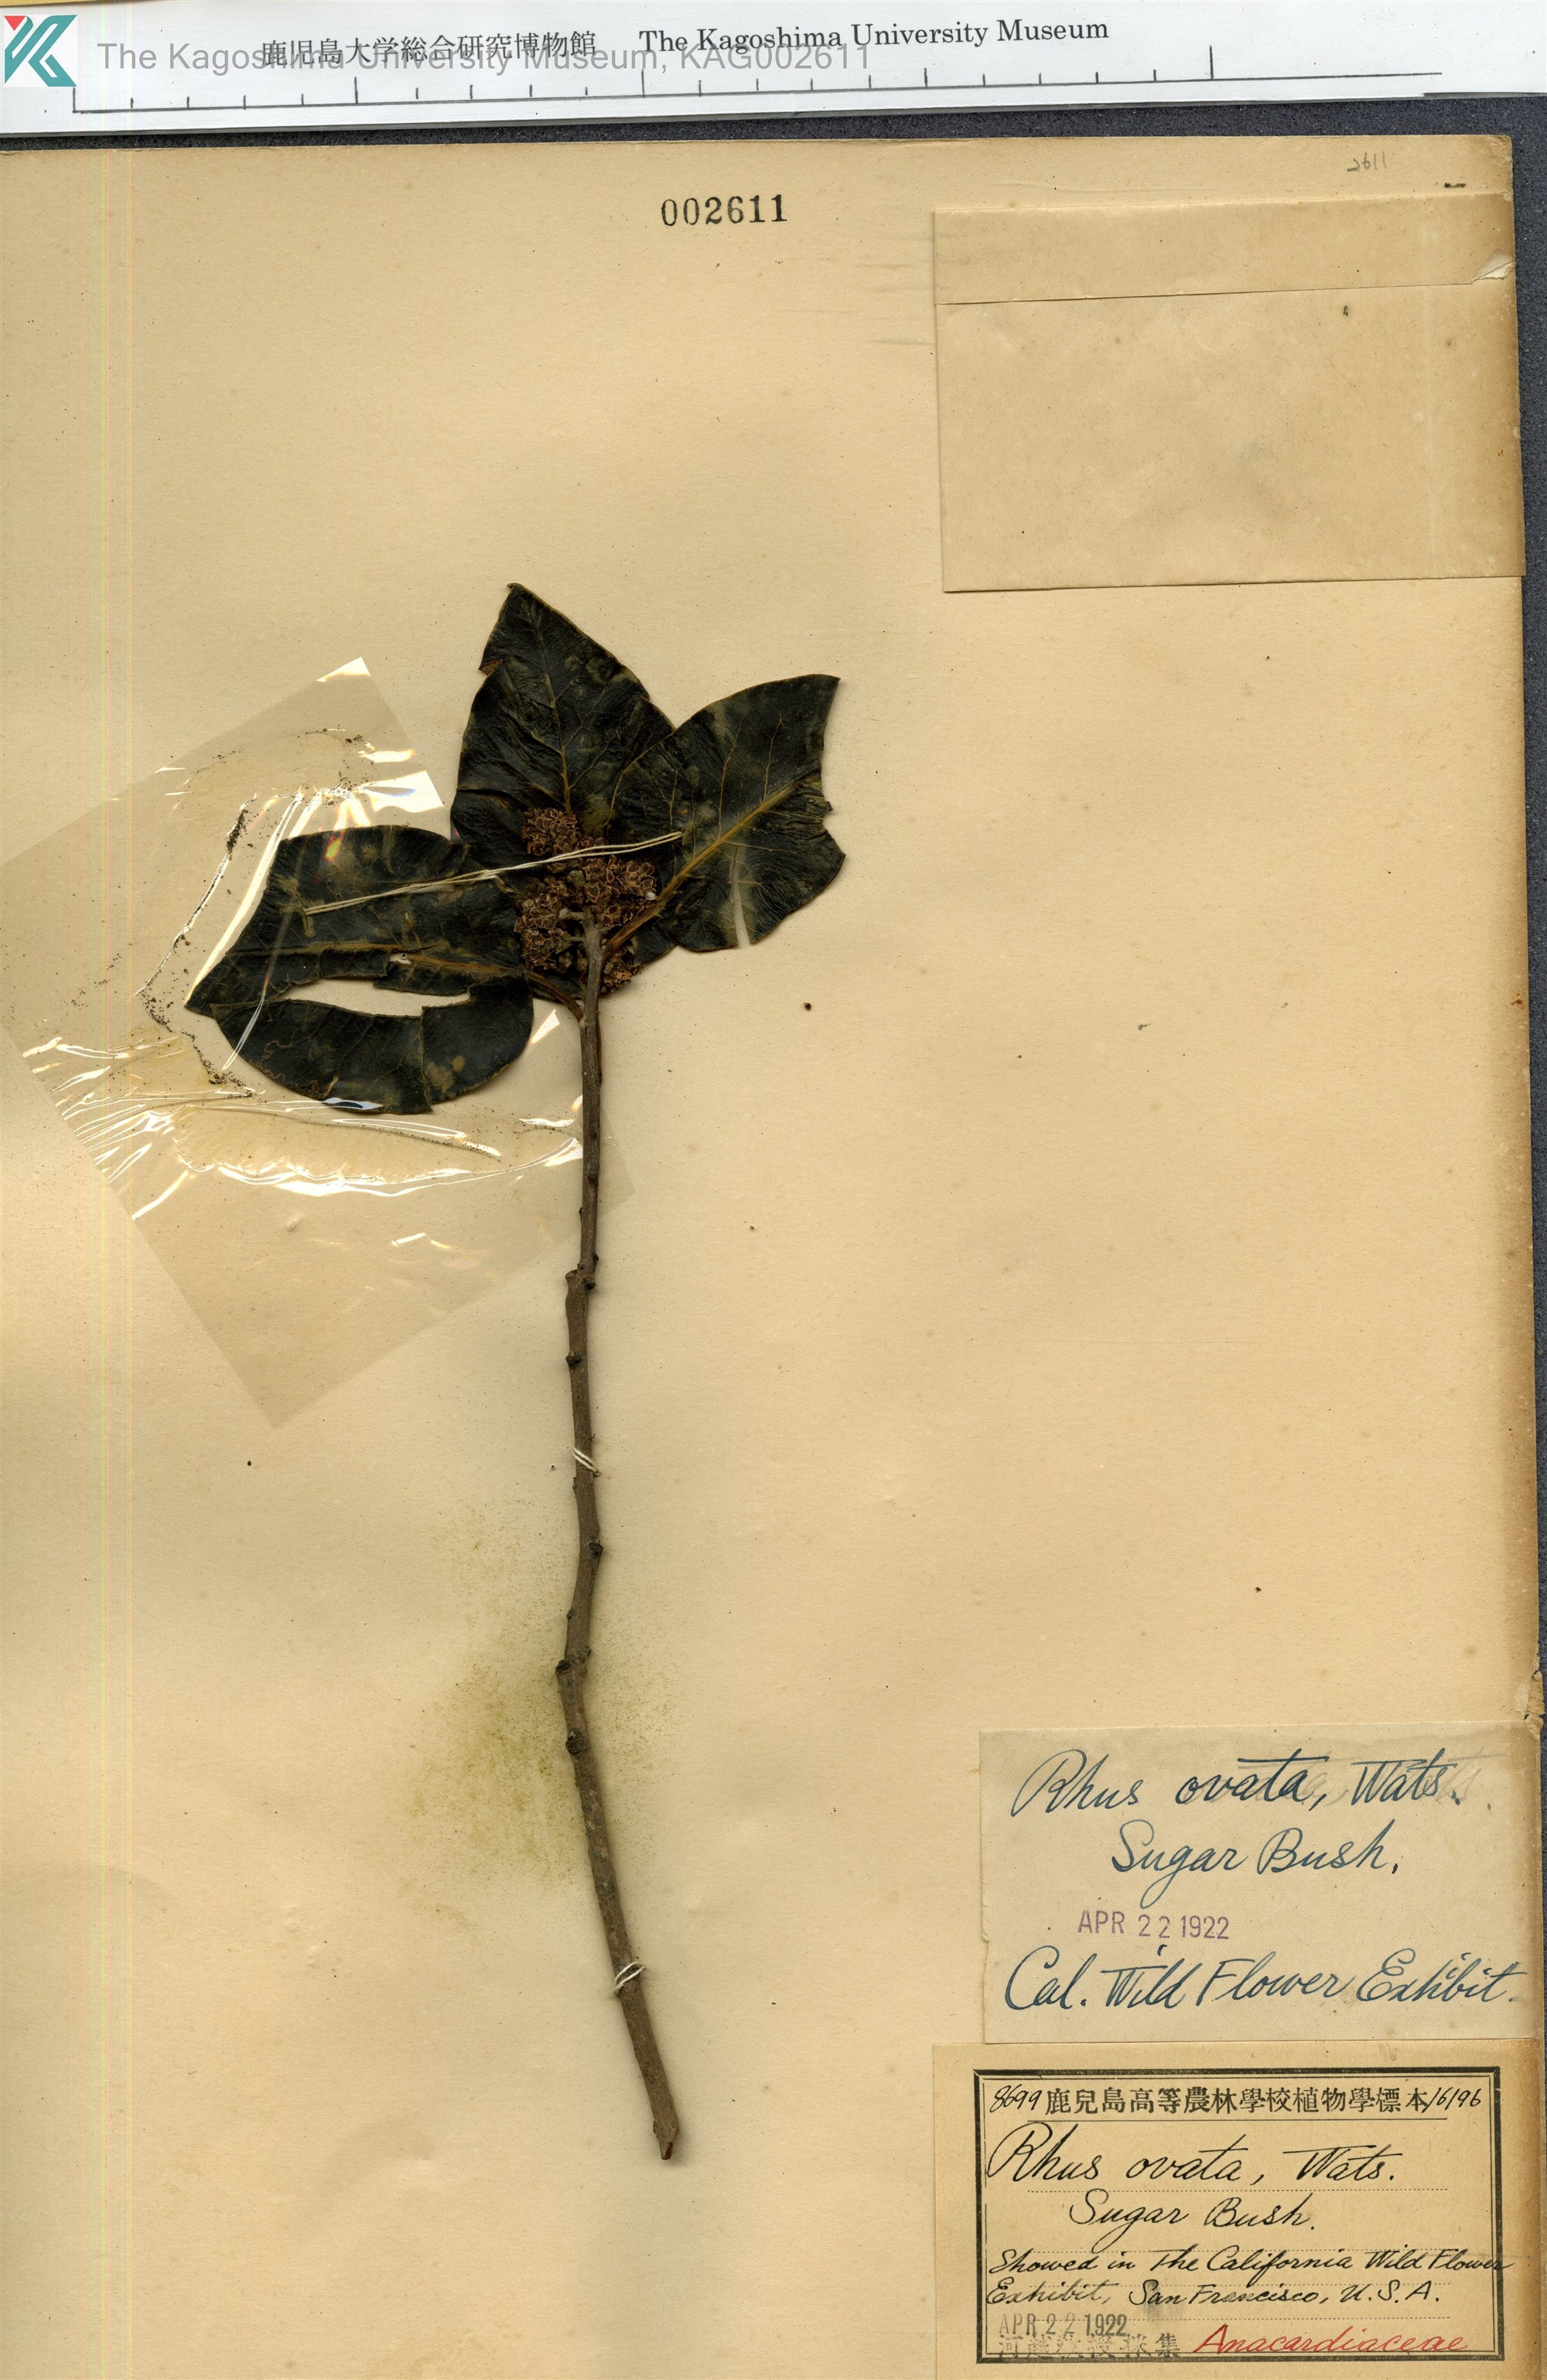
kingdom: Plantae
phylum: Tracheophyta
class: Magnoliopsida
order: Sapindales
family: Anacardiaceae
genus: Rhus
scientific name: Rhus ovata
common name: Sugar sumac
